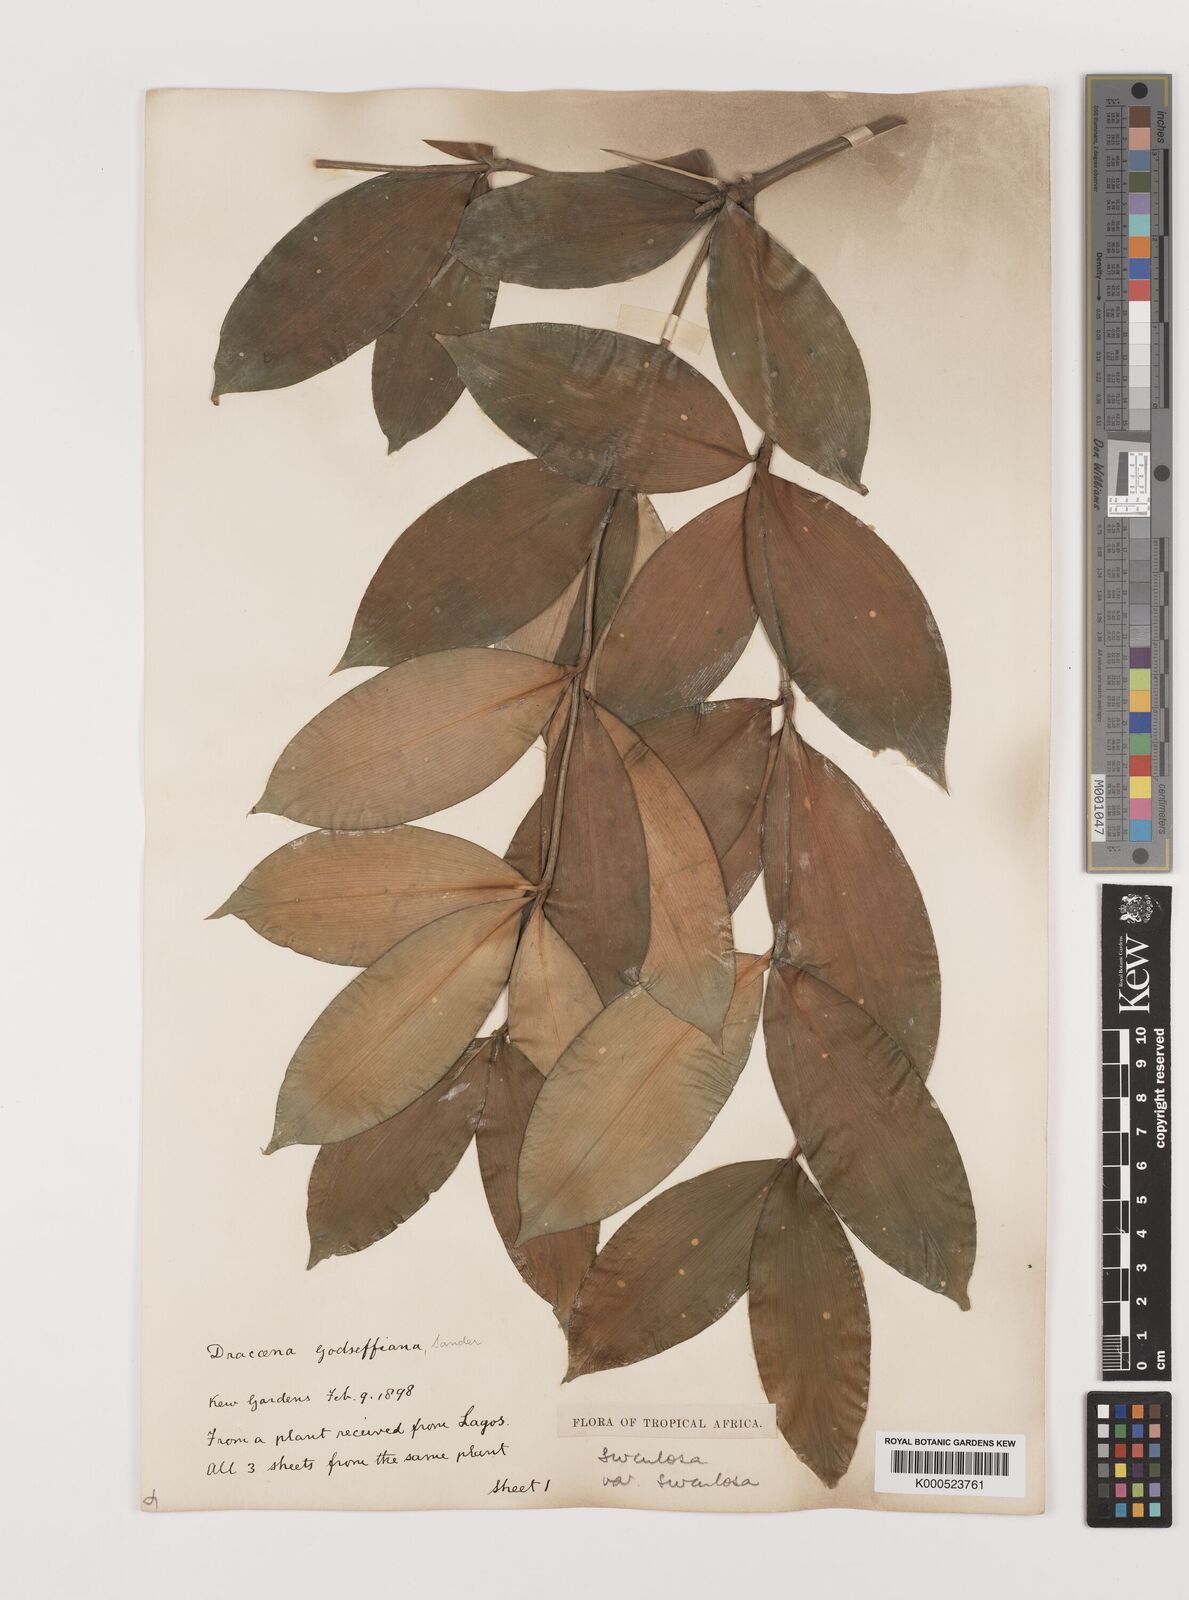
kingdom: Plantae
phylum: Tracheophyta
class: Liliopsida
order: Asparagales
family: Asparagaceae
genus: Dracaena
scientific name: Dracaena surculosa
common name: Spotted dracaena
